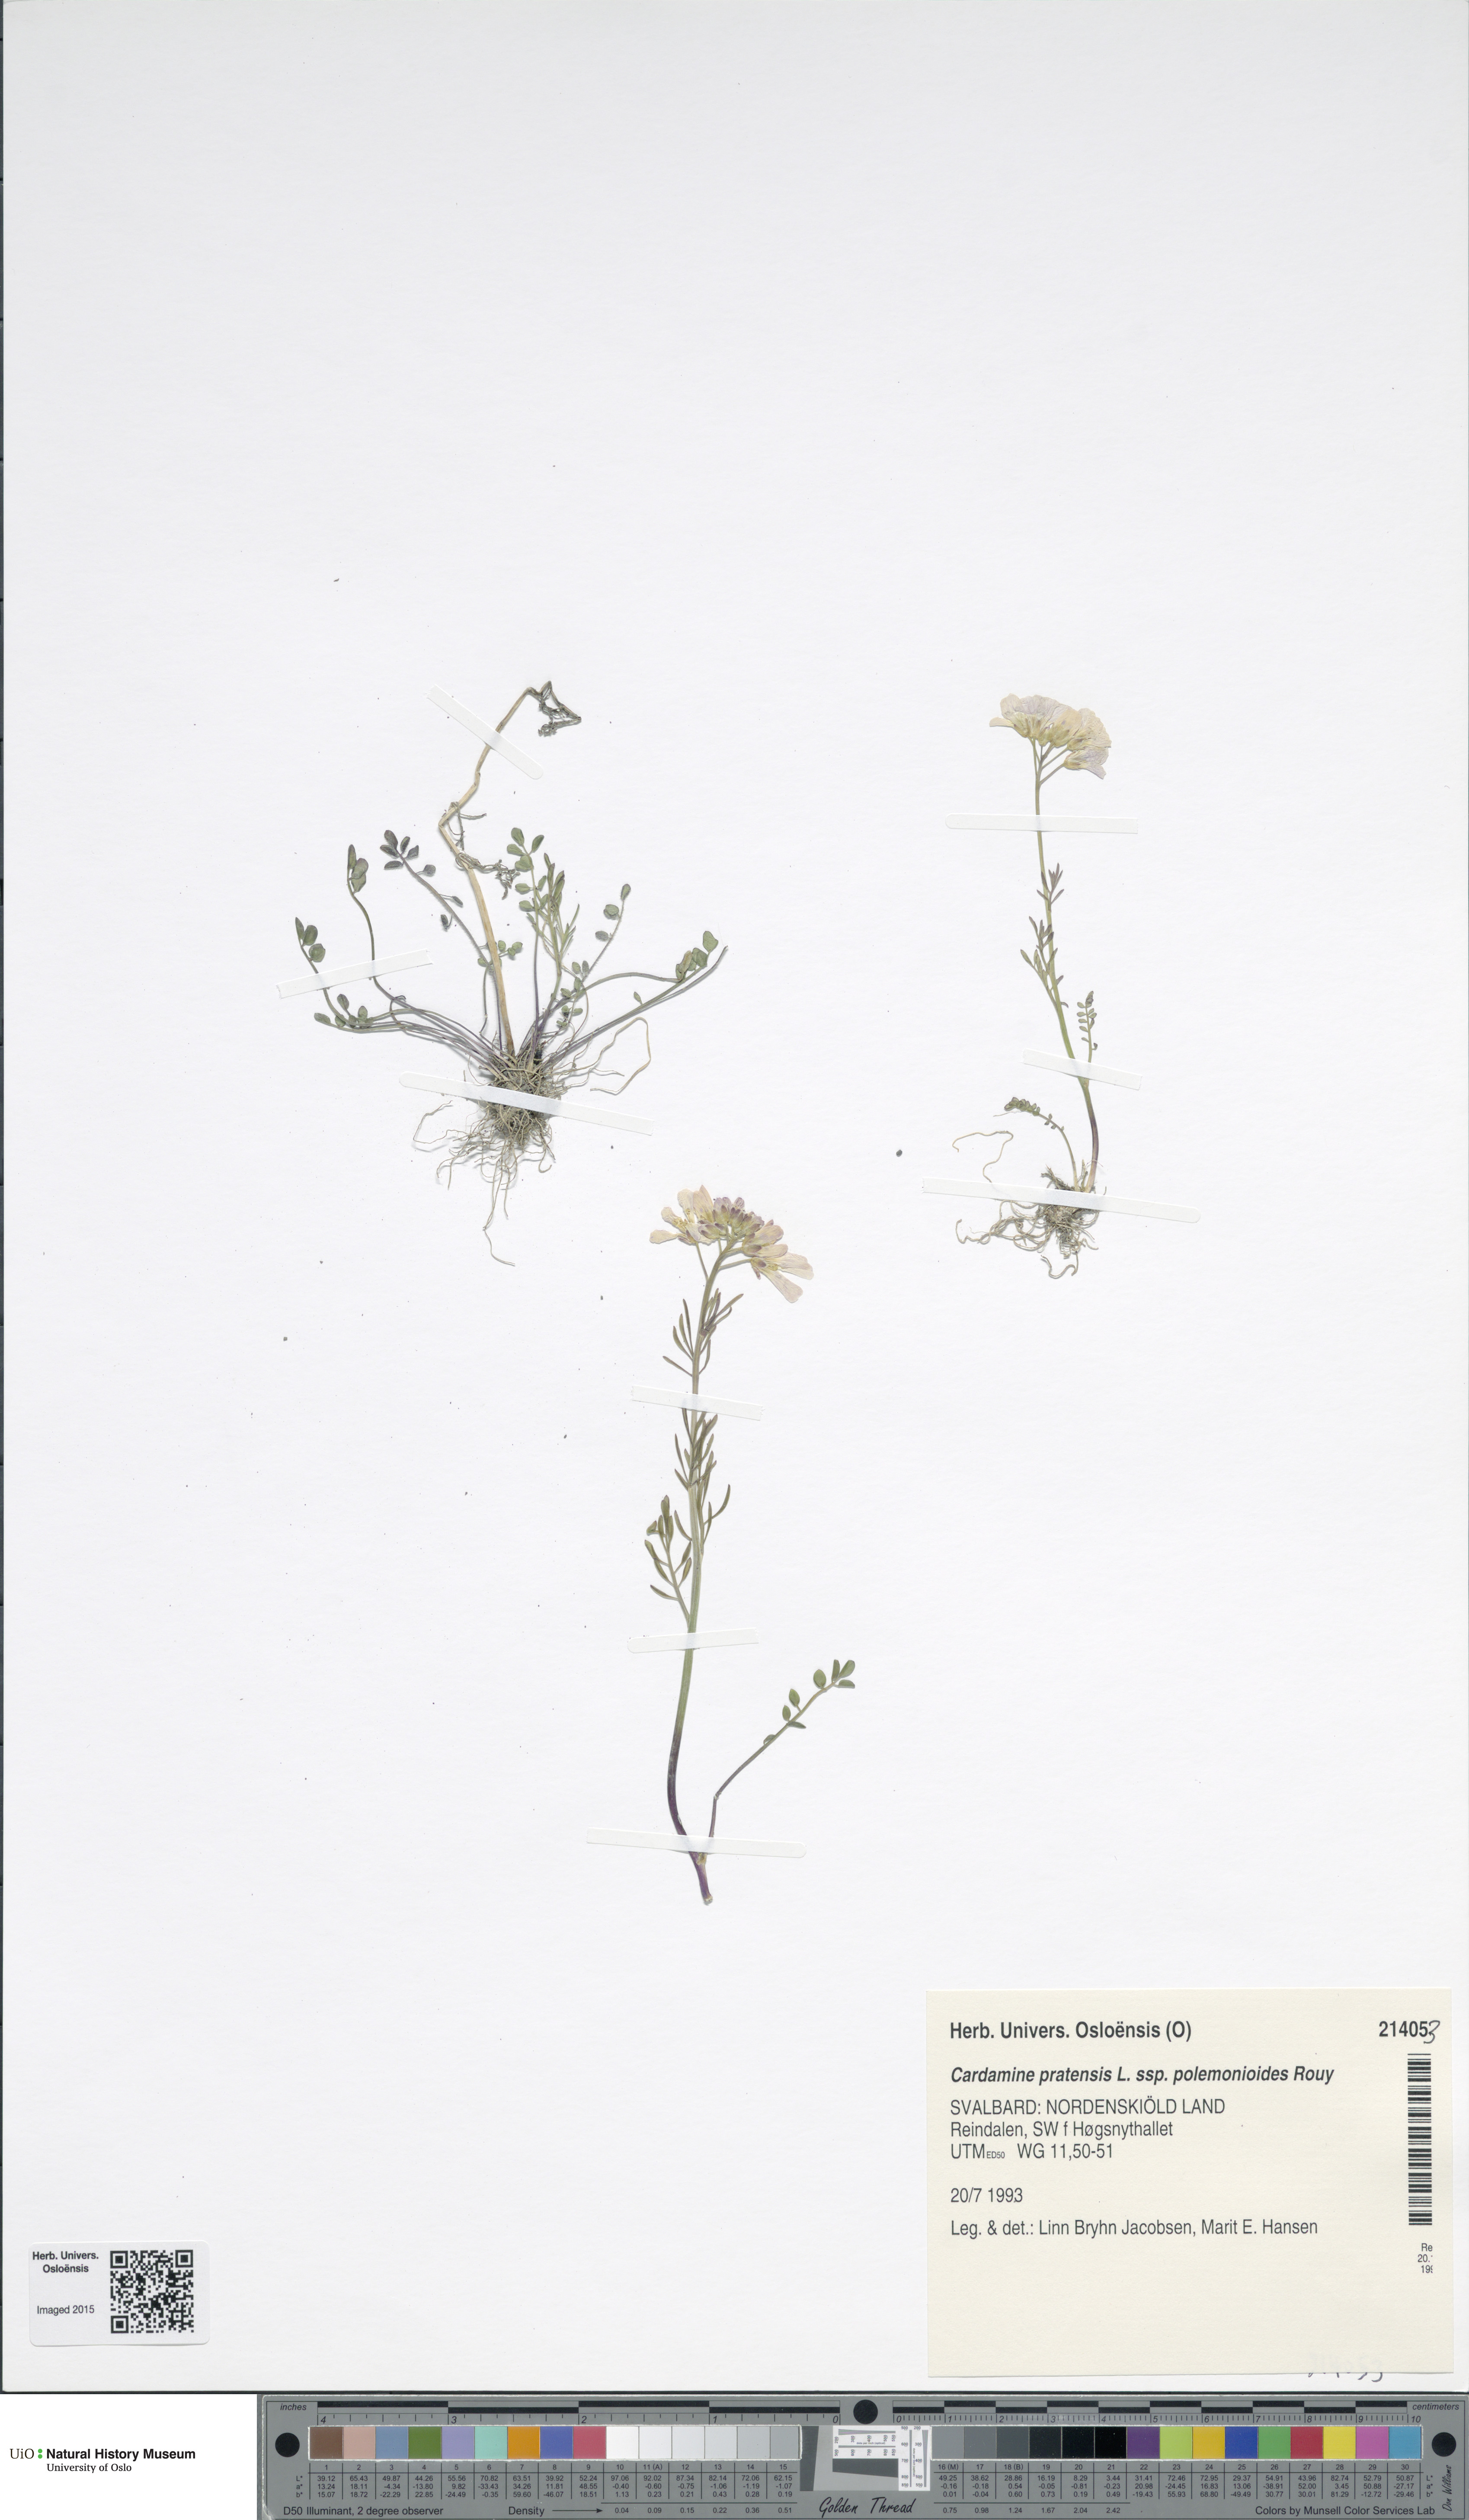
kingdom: Plantae
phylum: Tracheophyta
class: Magnoliopsida
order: Brassicales
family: Brassicaceae
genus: Cardamine
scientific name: Cardamine nymanii
